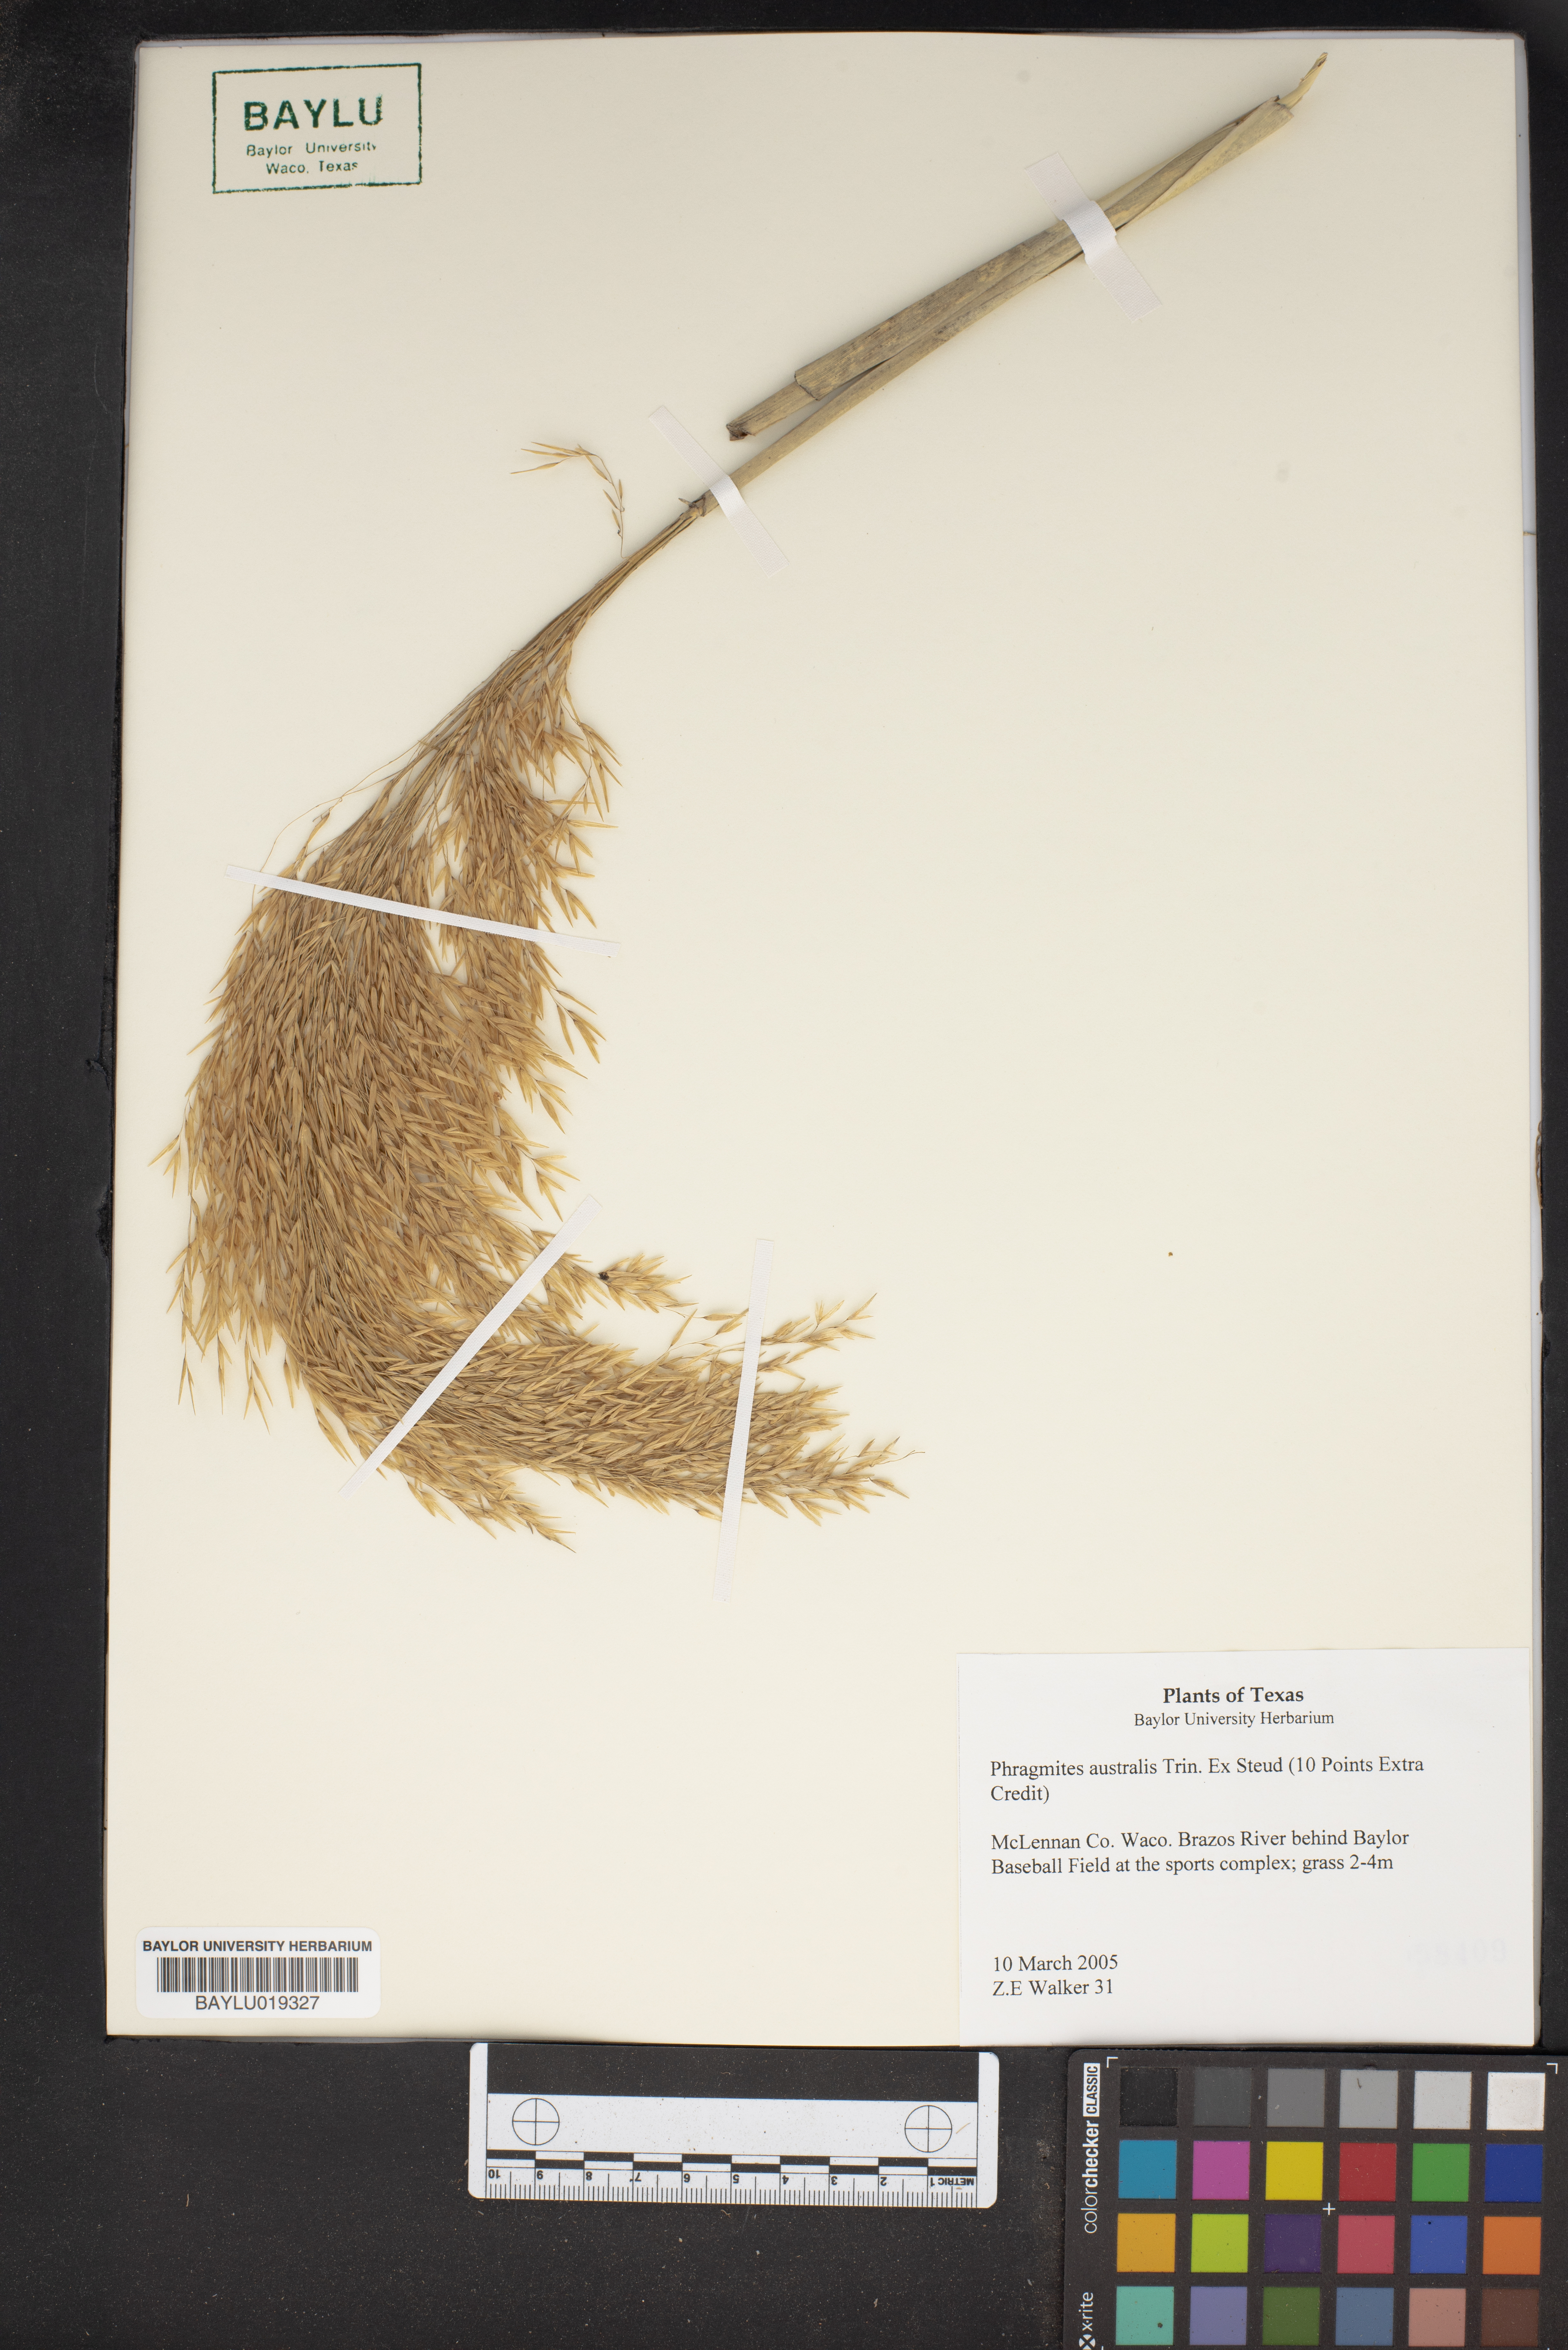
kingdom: Plantae
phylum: Tracheophyta
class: Liliopsida
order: Poales
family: Poaceae
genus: Phragmites
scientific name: Phragmites australis
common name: Common reed
